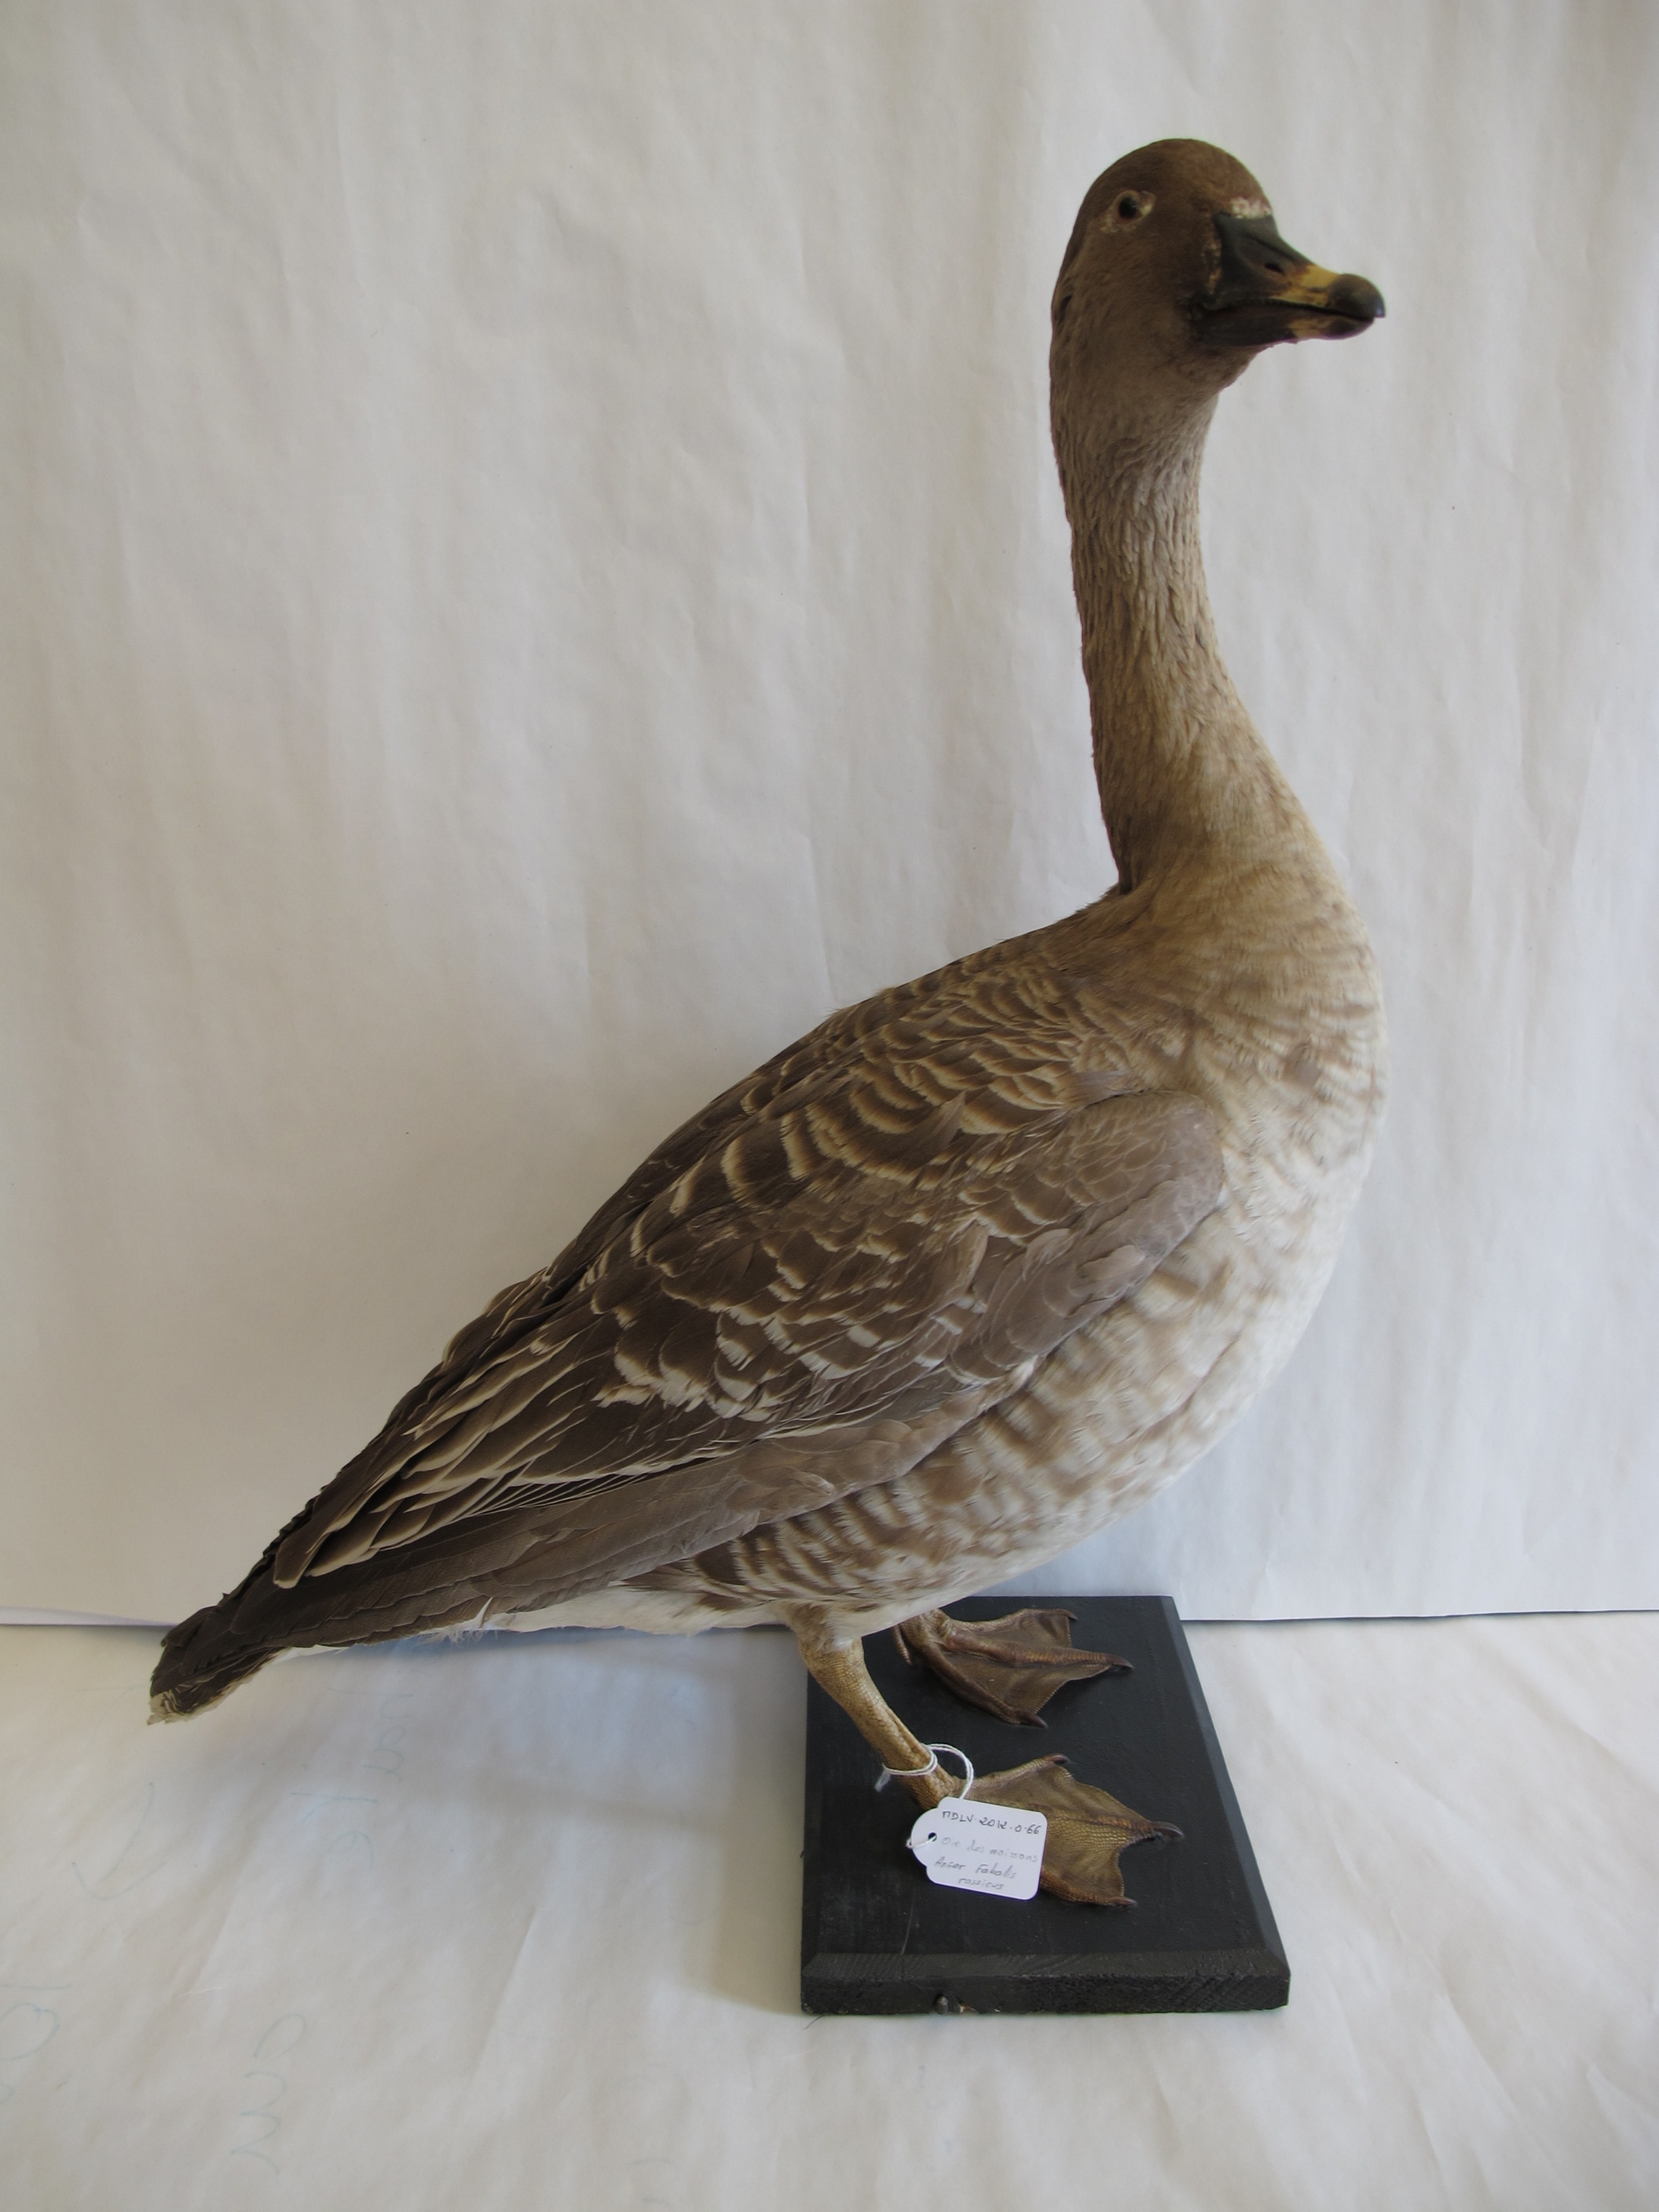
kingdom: Animalia
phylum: Chordata
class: Aves
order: Anseriformes
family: Anatidae
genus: Anser
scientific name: Anser serrirostris
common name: Bean Goose
